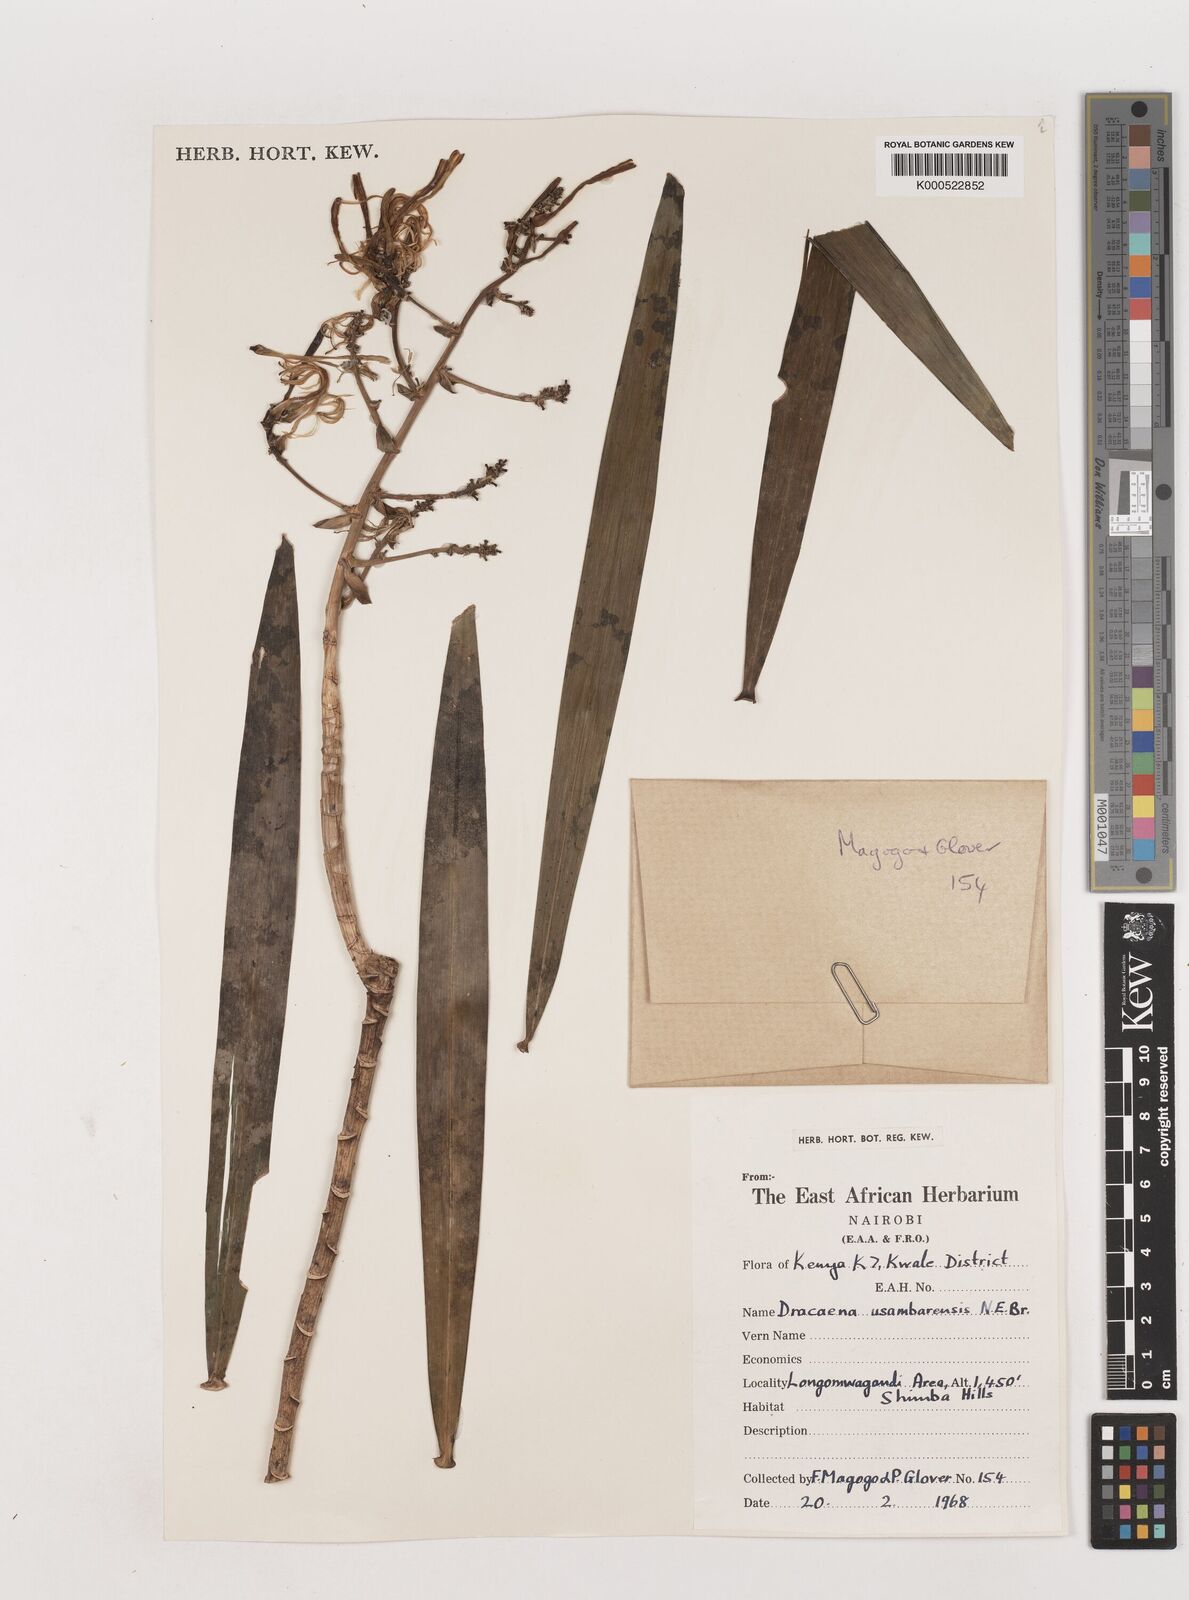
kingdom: Plantae
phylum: Tracheophyta
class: Liliopsida
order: Asparagales
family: Asparagaceae
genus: Dracaena
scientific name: Dracaena usambarensis
